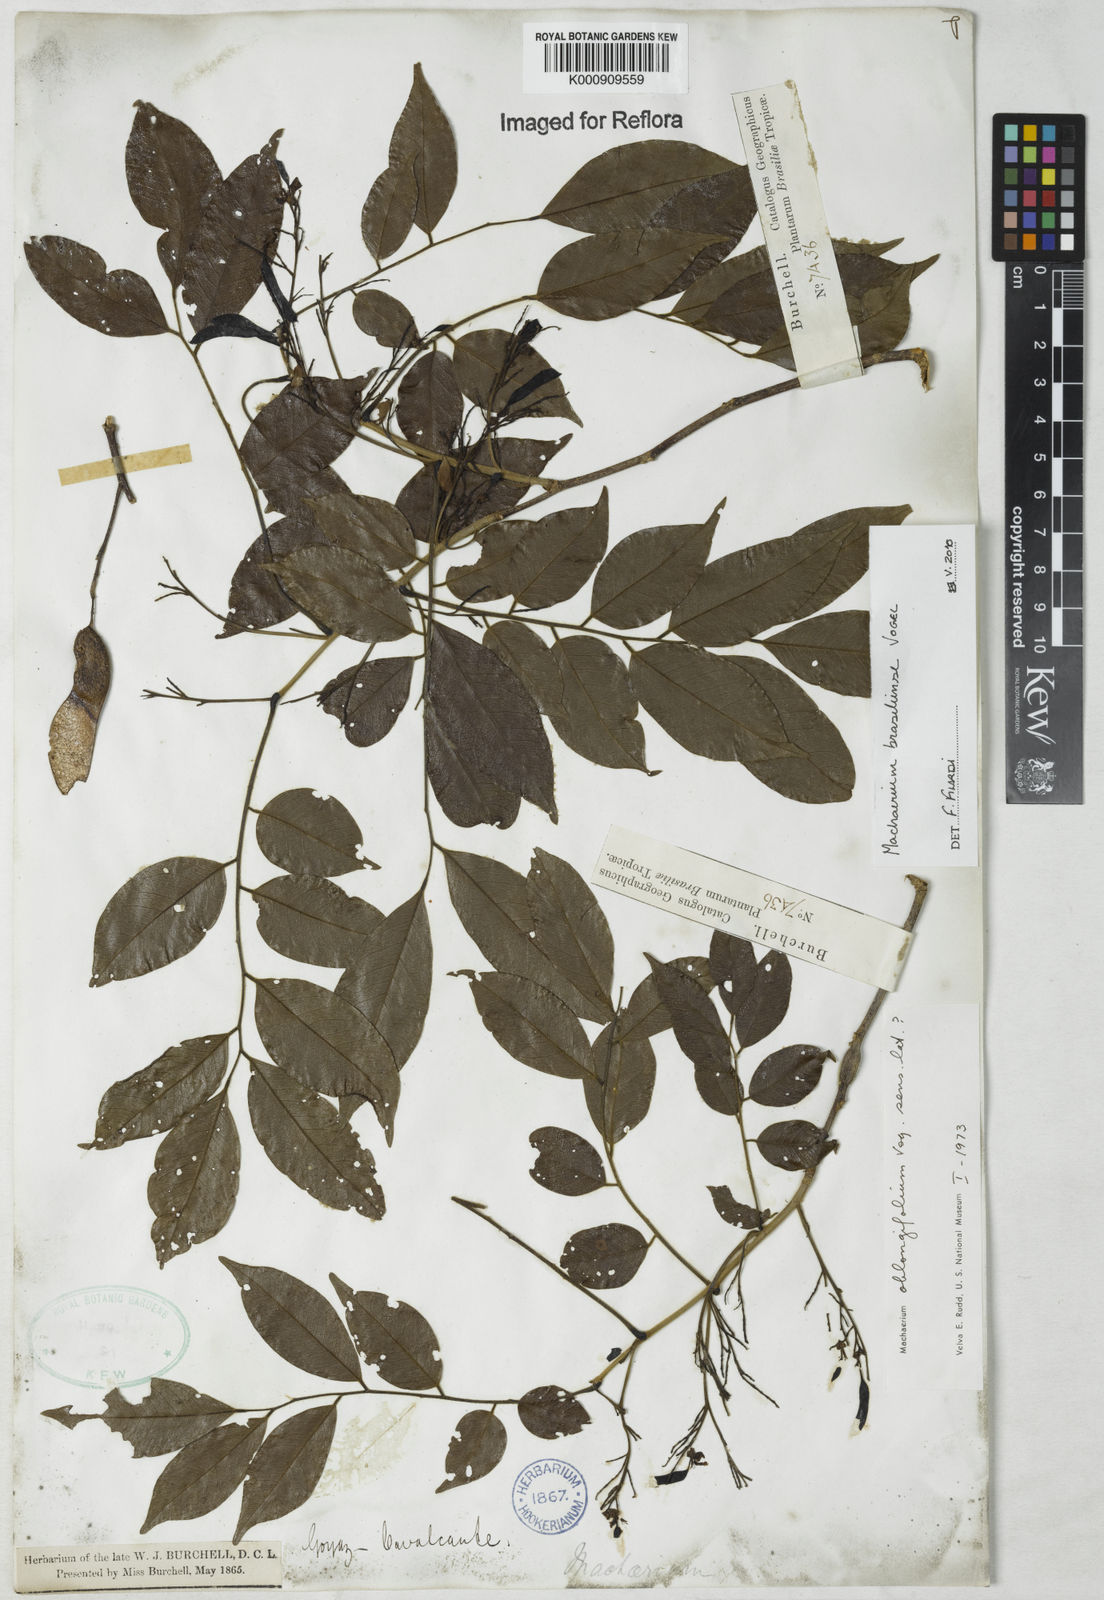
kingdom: Plantae
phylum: Tracheophyta
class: Magnoliopsida
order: Fabales
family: Fabaceae
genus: Machaerium
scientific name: Machaerium brasiliense
